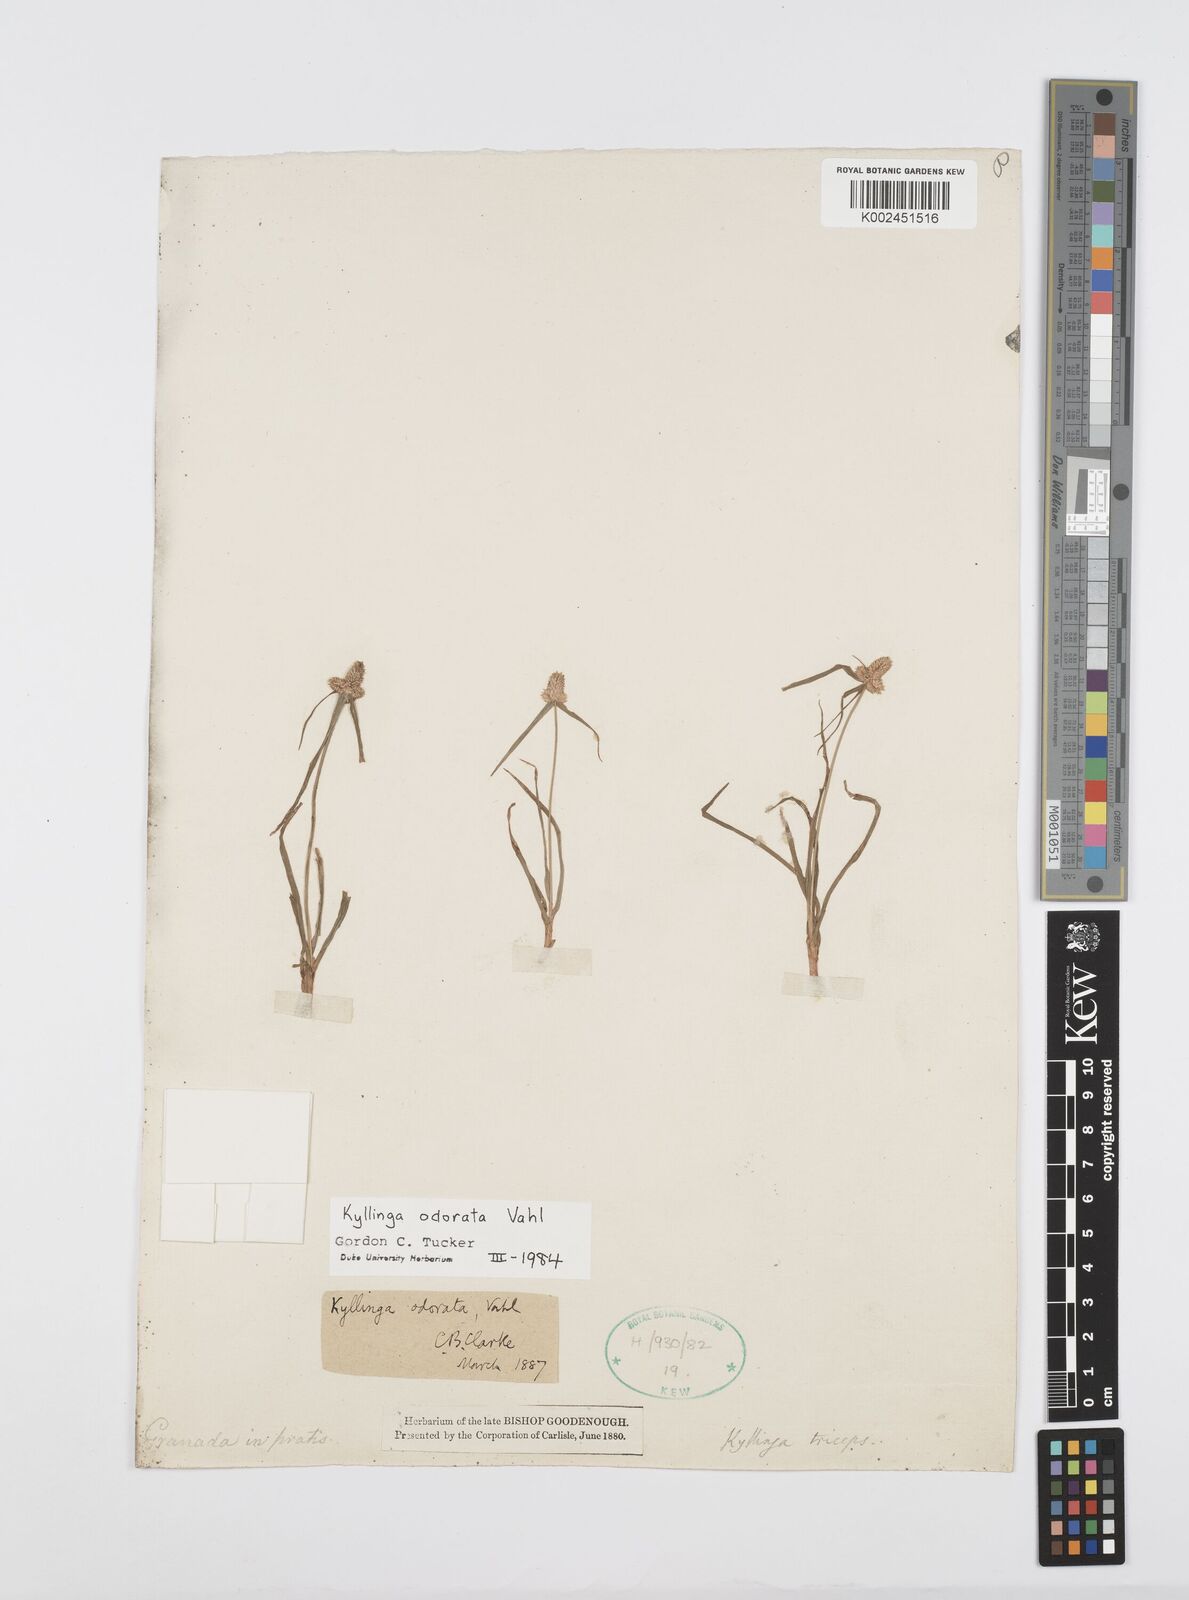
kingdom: Plantae
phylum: Tracheophyta
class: Liliopsida
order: Poales
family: Cyperaceae
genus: Cyperus
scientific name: Cyperus sesquiflorus
